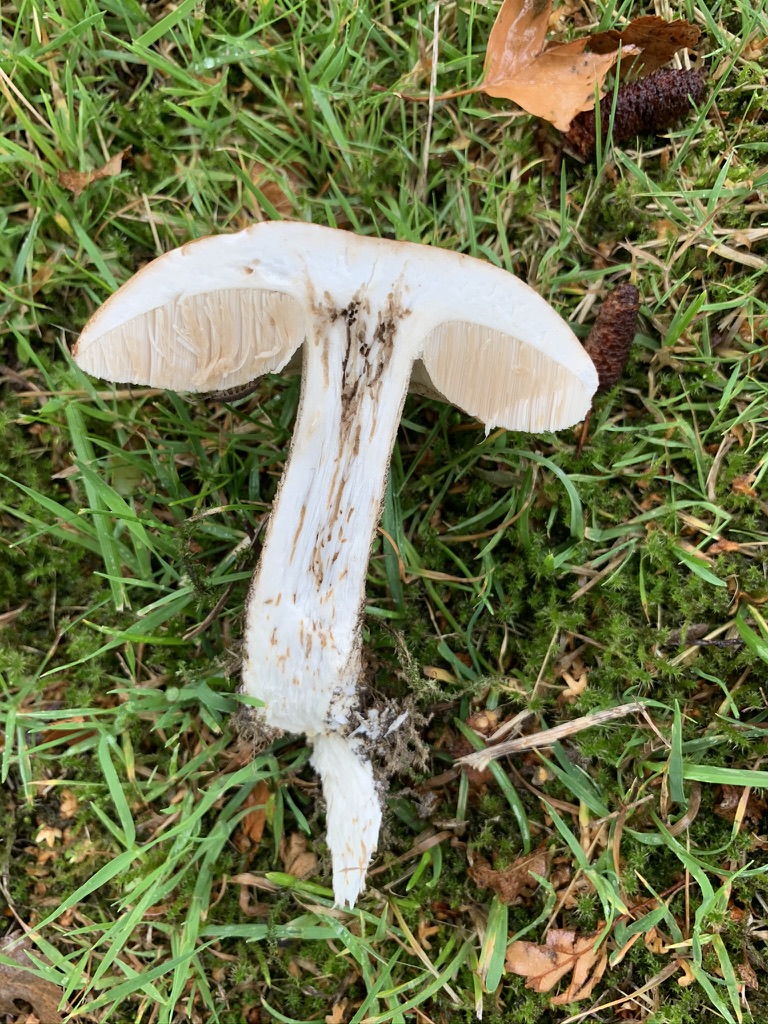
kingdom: Fungi
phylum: Basidiomycota
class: Agaricomycetes
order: Boletales
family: Boletaceae
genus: Leccinum
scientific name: Leccinum scabrum
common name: brun skælrørhat
